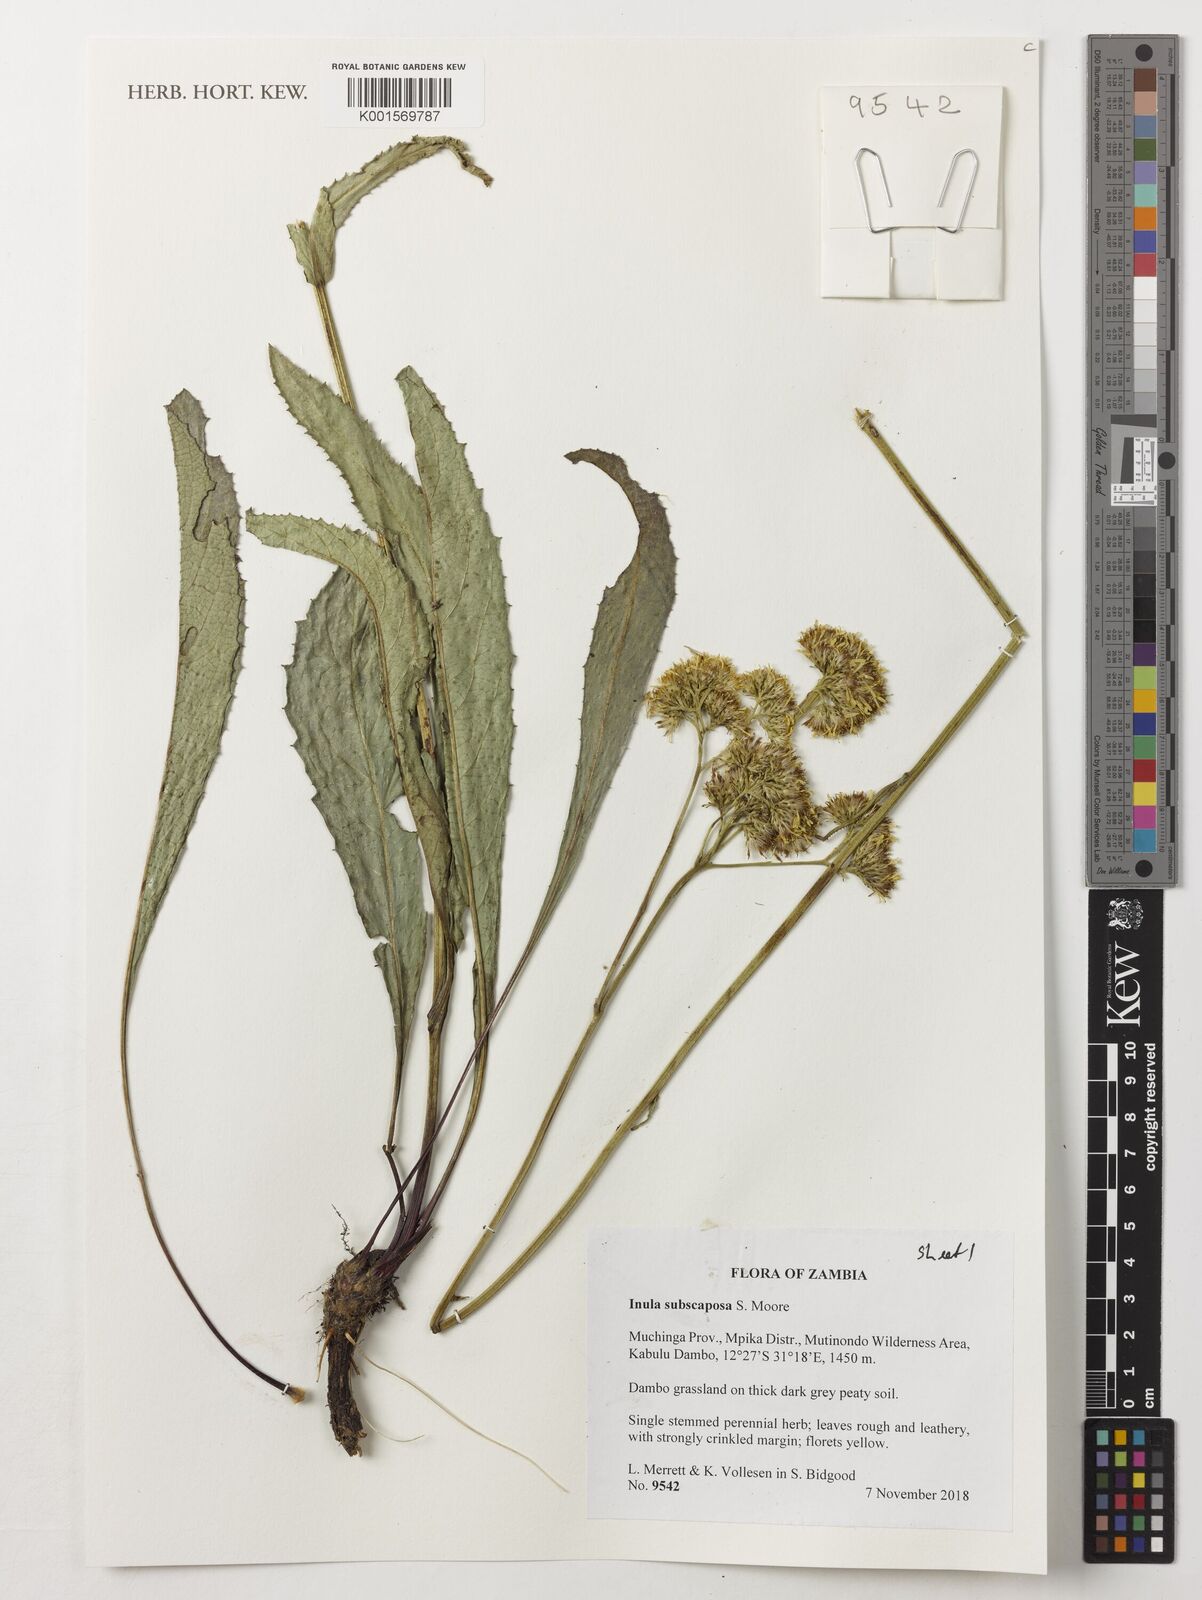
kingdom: Plantae
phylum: Tracheophyta
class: Magnoliopsida
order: Asterales
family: Asteraceae
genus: Monactinocephalus
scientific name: Monactinocephalus paniculatus
